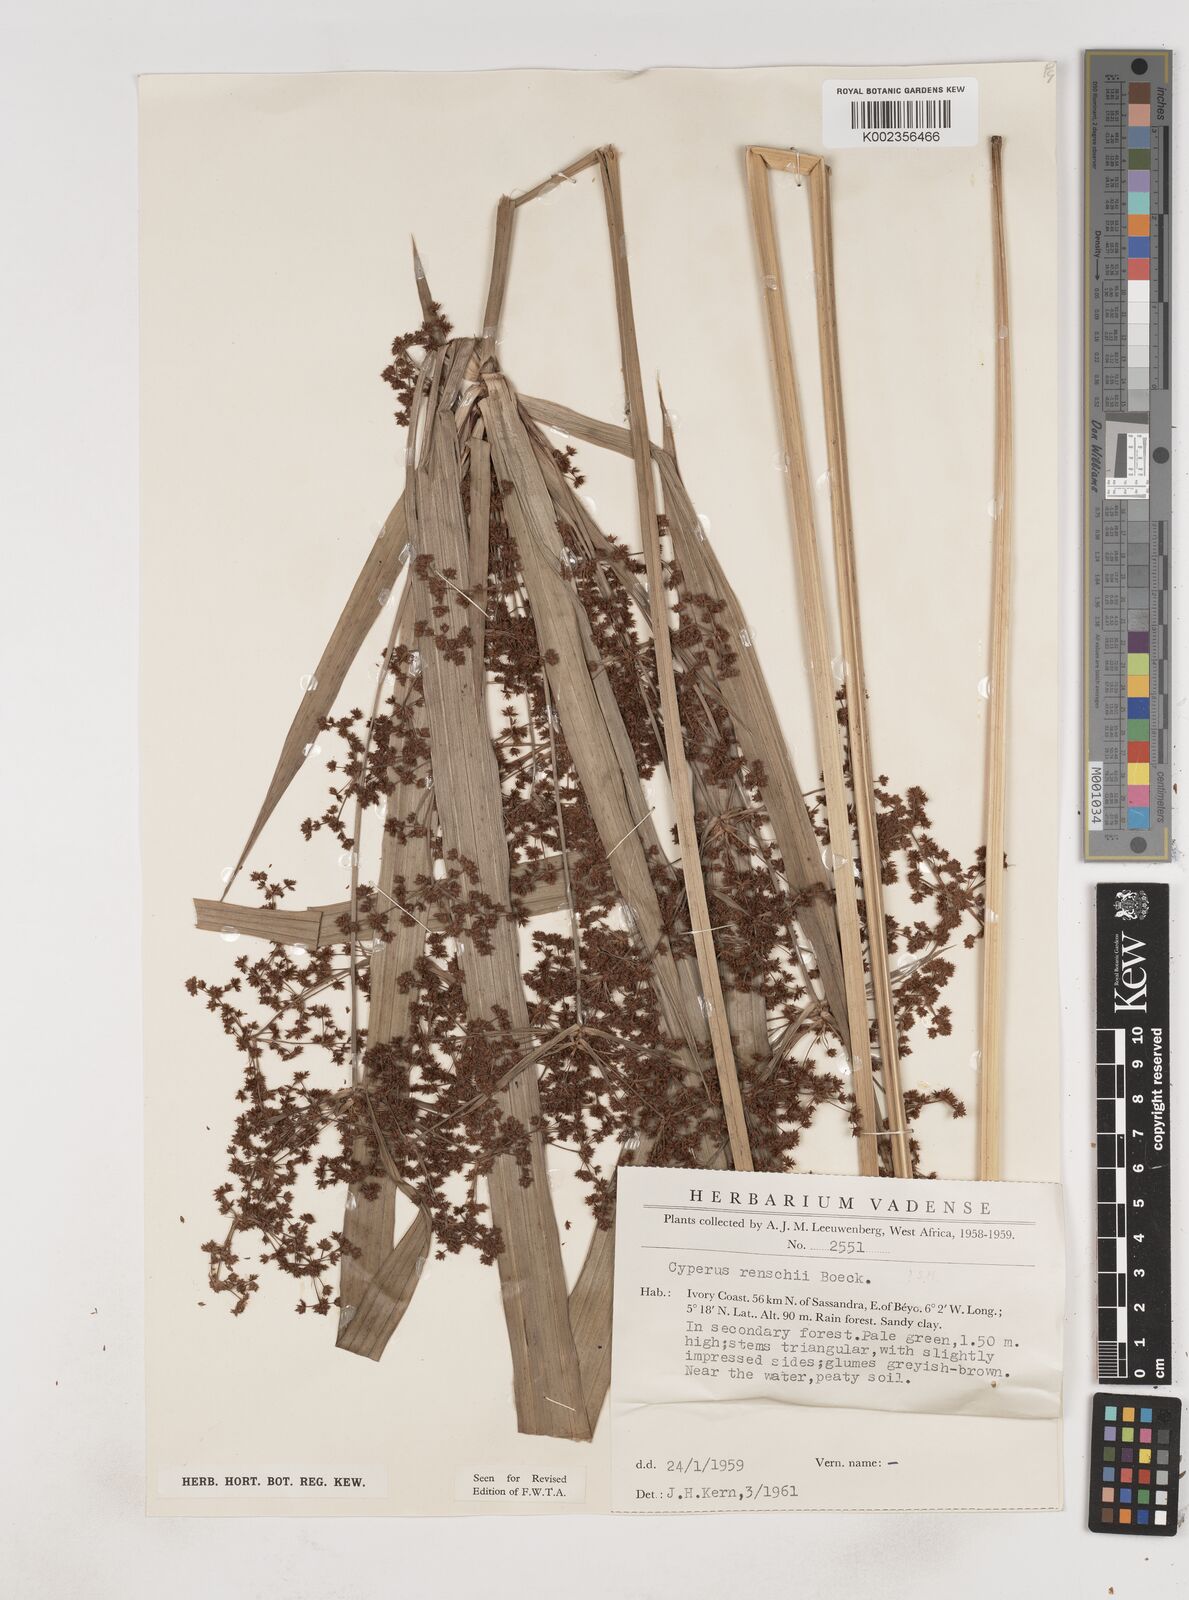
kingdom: Plantae
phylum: Tracheophyta
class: Liliopsida
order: Poales
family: Cyperaceae
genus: Cyperus
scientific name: Cyperus renschii
